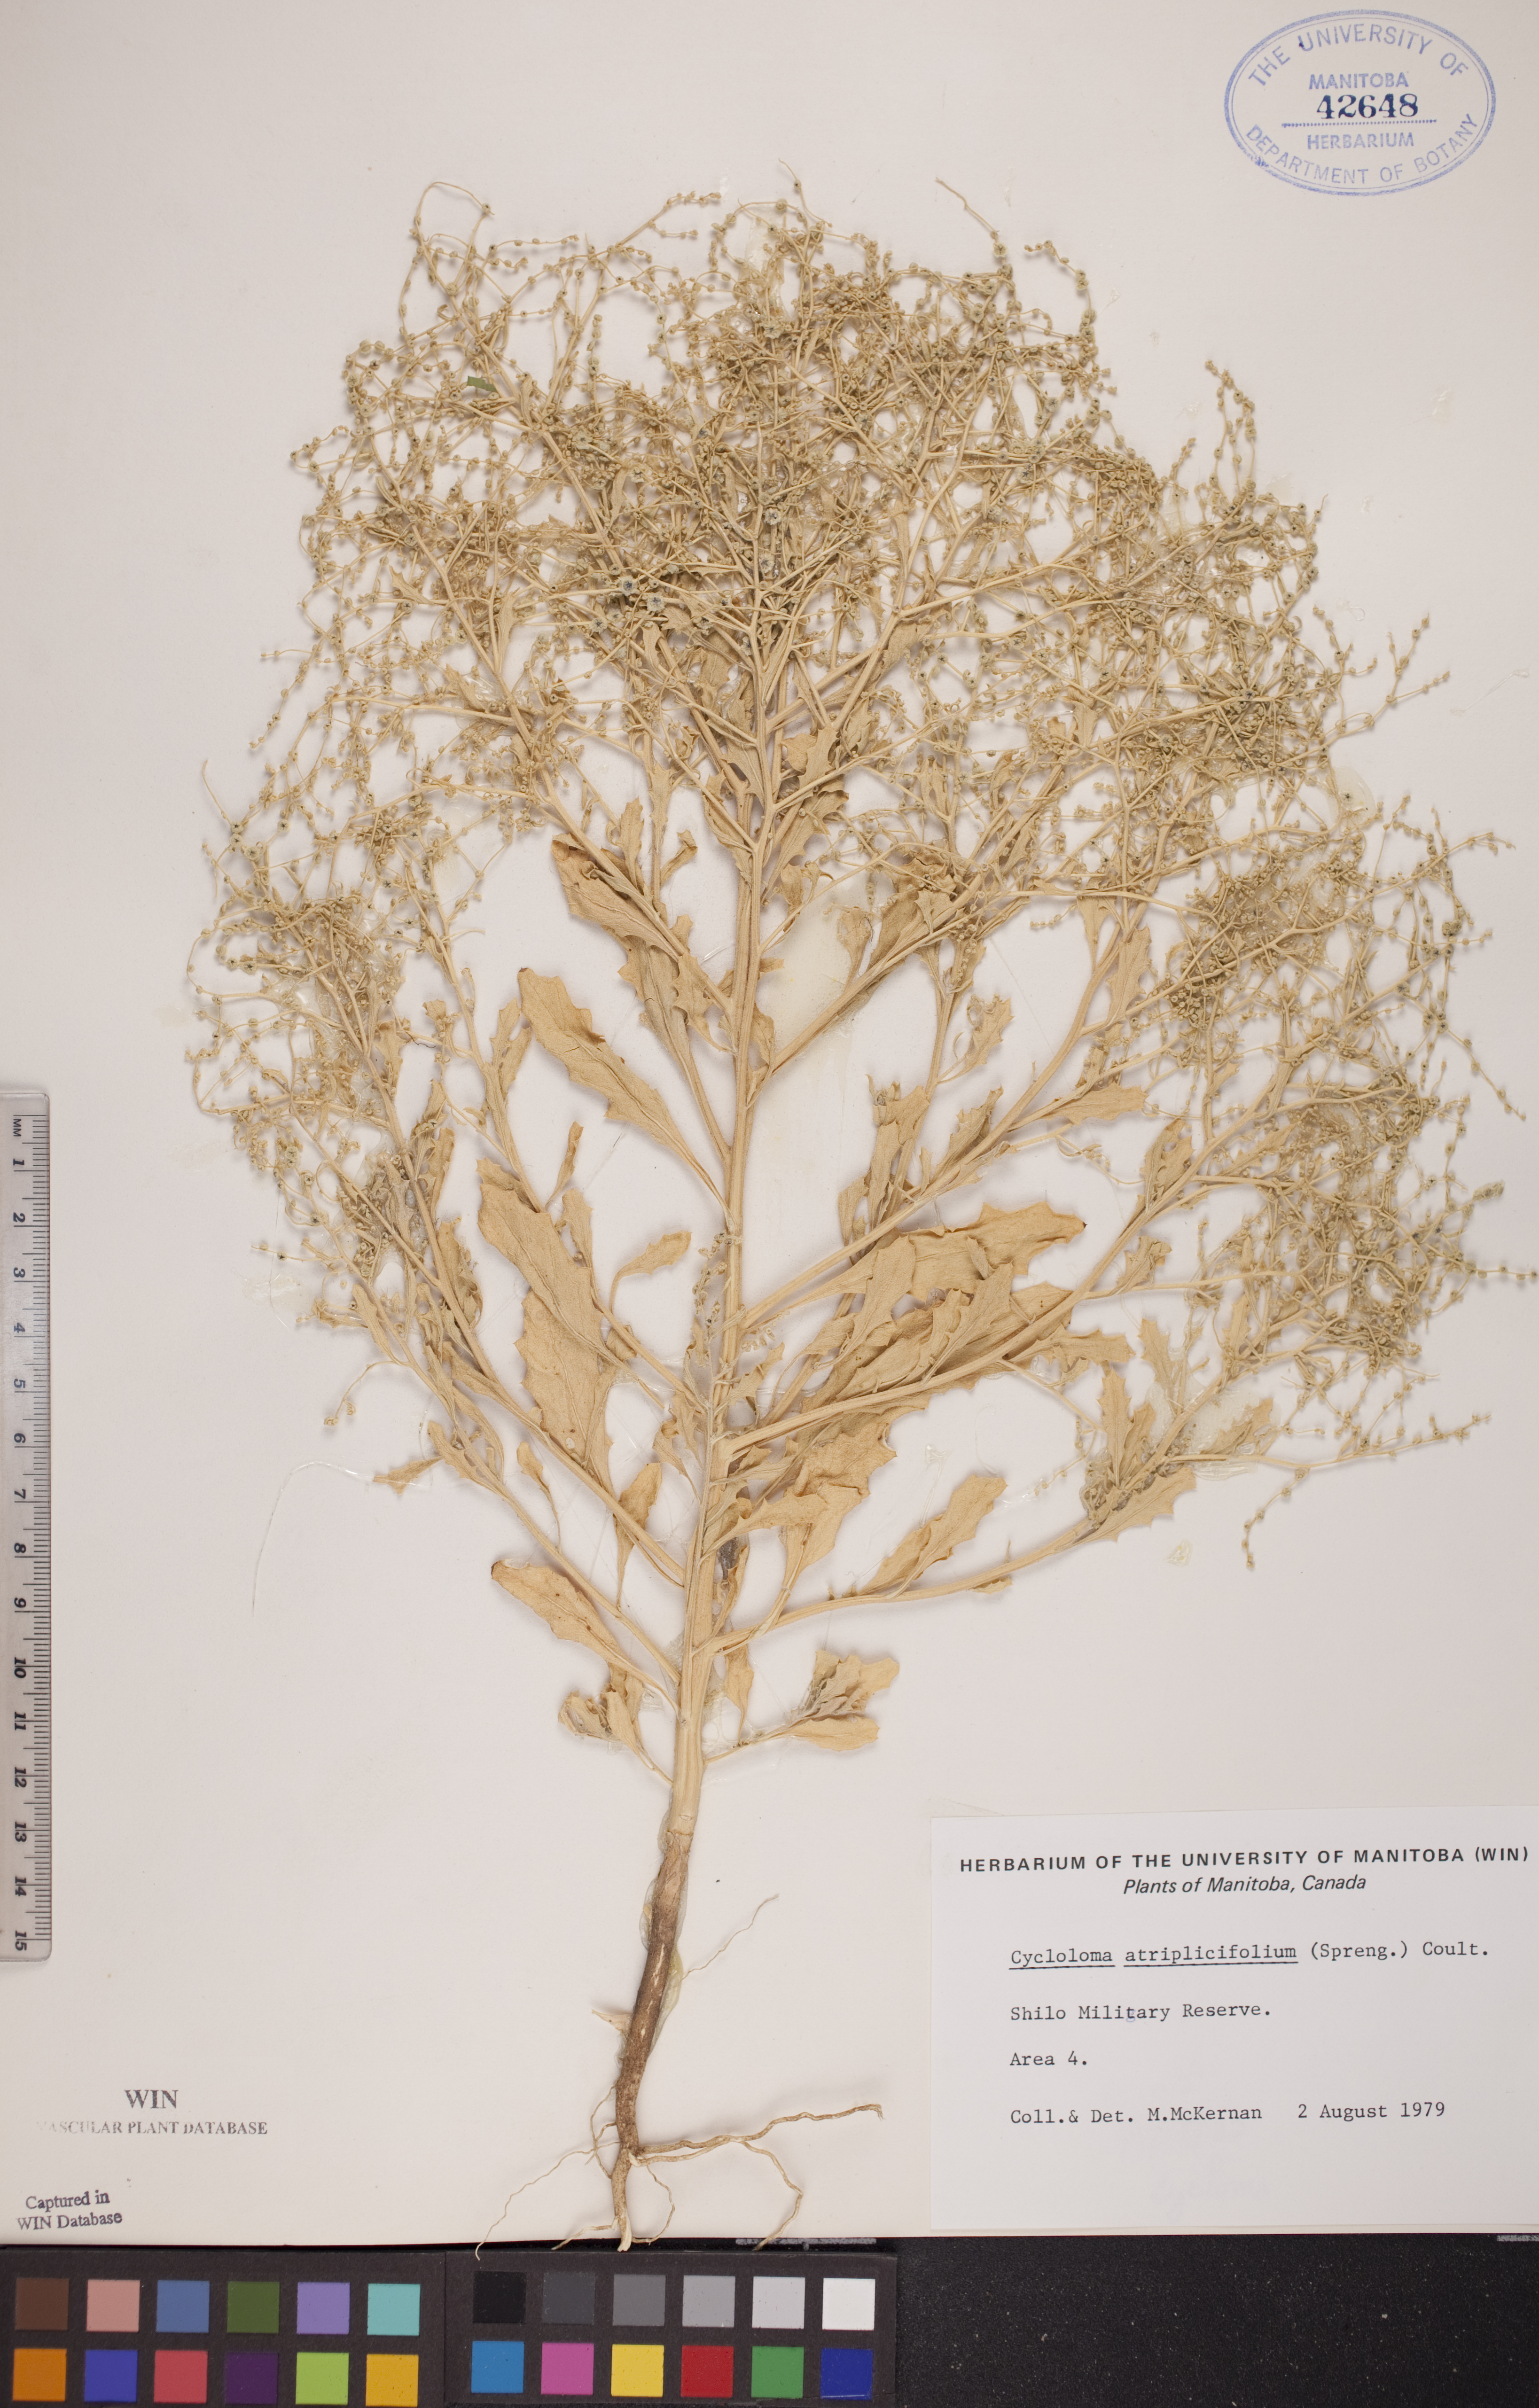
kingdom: Plantae
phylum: Tracheophyta
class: Magnoliopsida
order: Caryophyllales
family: Amaranthaceae
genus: Dysphania
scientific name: Dysphania atriplicifolia
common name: Plains tumbleweed
